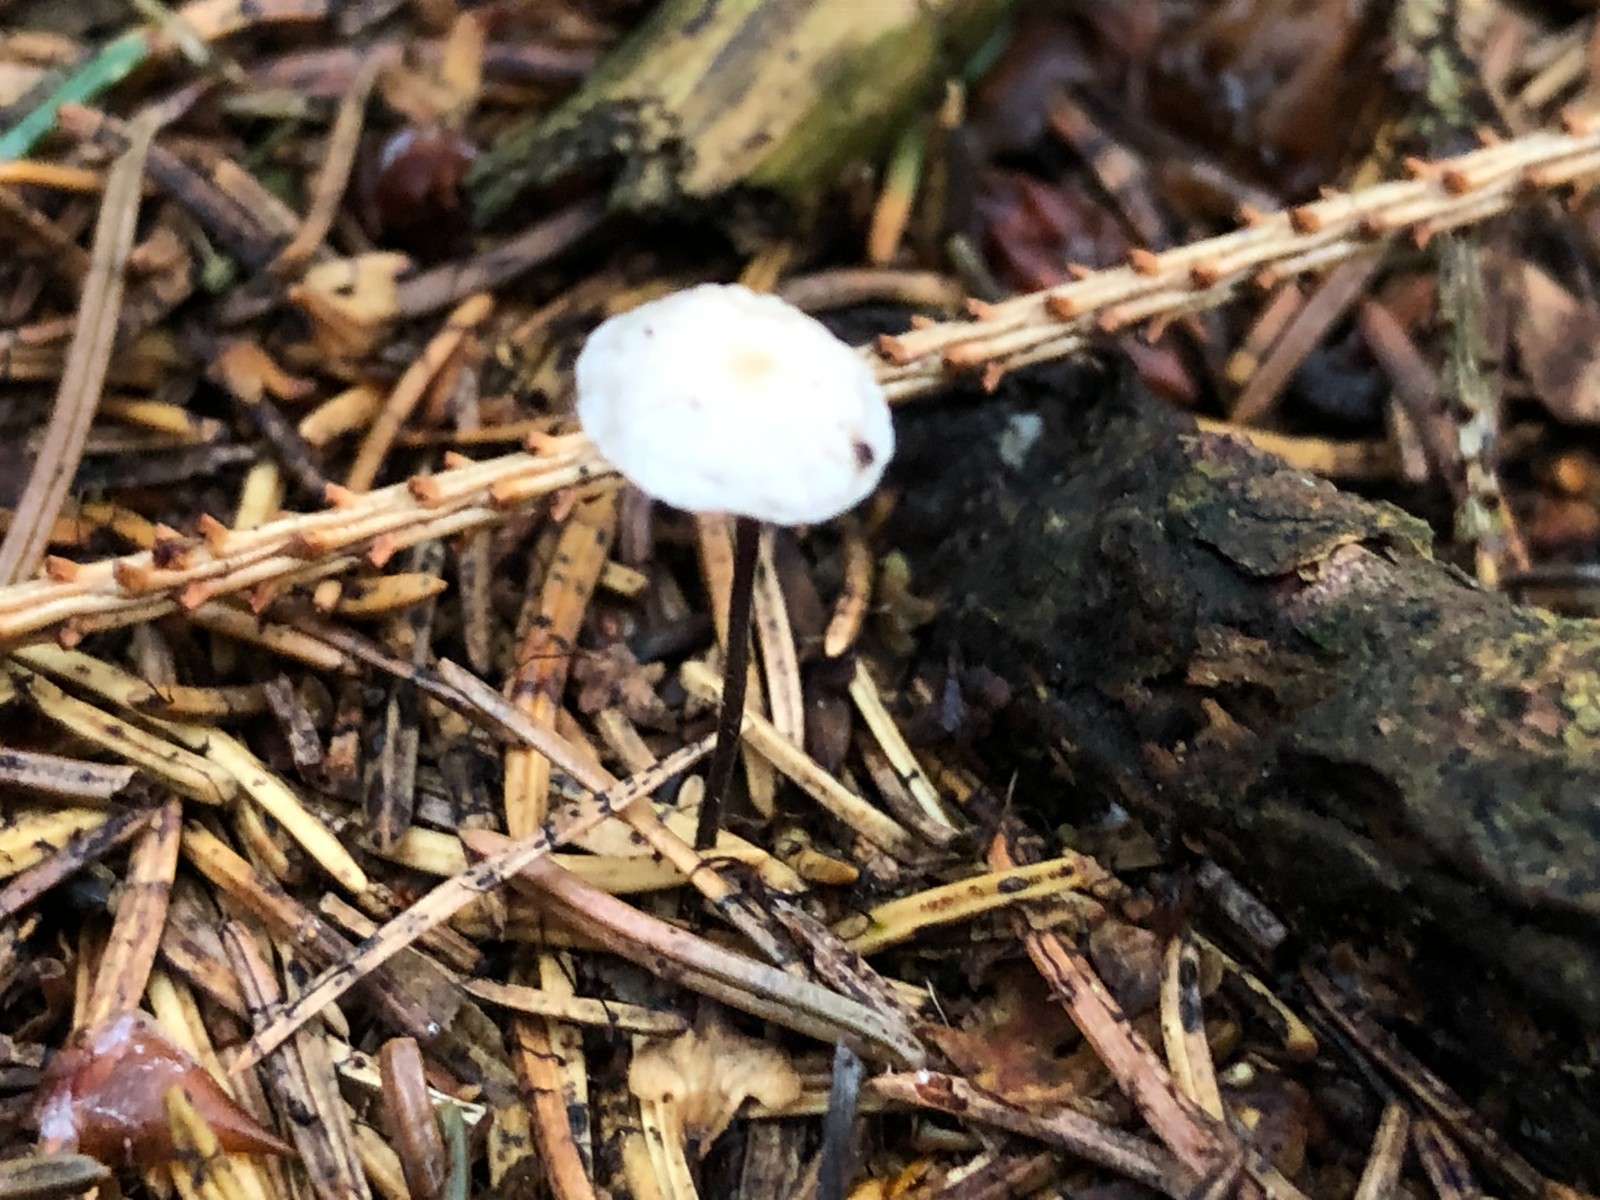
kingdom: Fungi
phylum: Basidiomycota
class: Agaricomycetes
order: Agaricales
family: Marasmiaceae
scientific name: Marasmiaceae
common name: bruskhatfamilien
